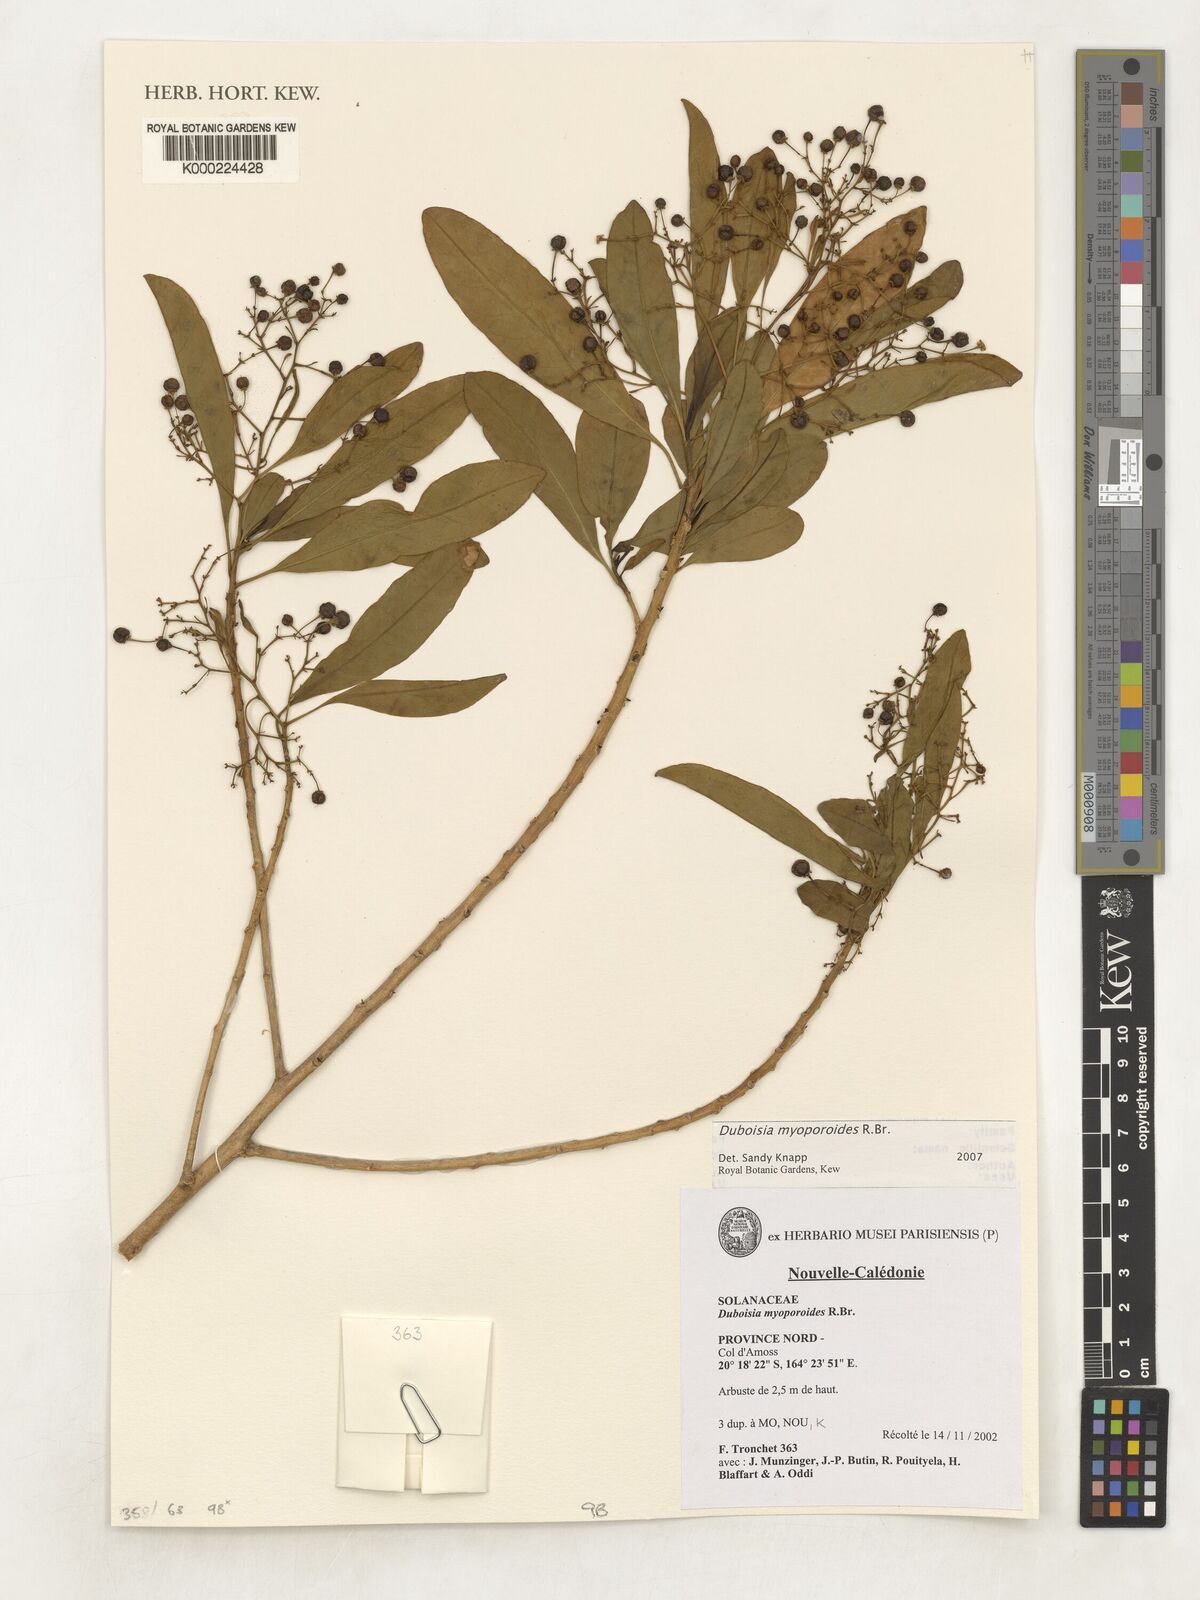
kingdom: Plantae
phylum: Tracheophyta
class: Magnoliopsida
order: Solanales
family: Solanaceae
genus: Duboisia
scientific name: Duboisia myoporoides
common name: Corkwoodtree
